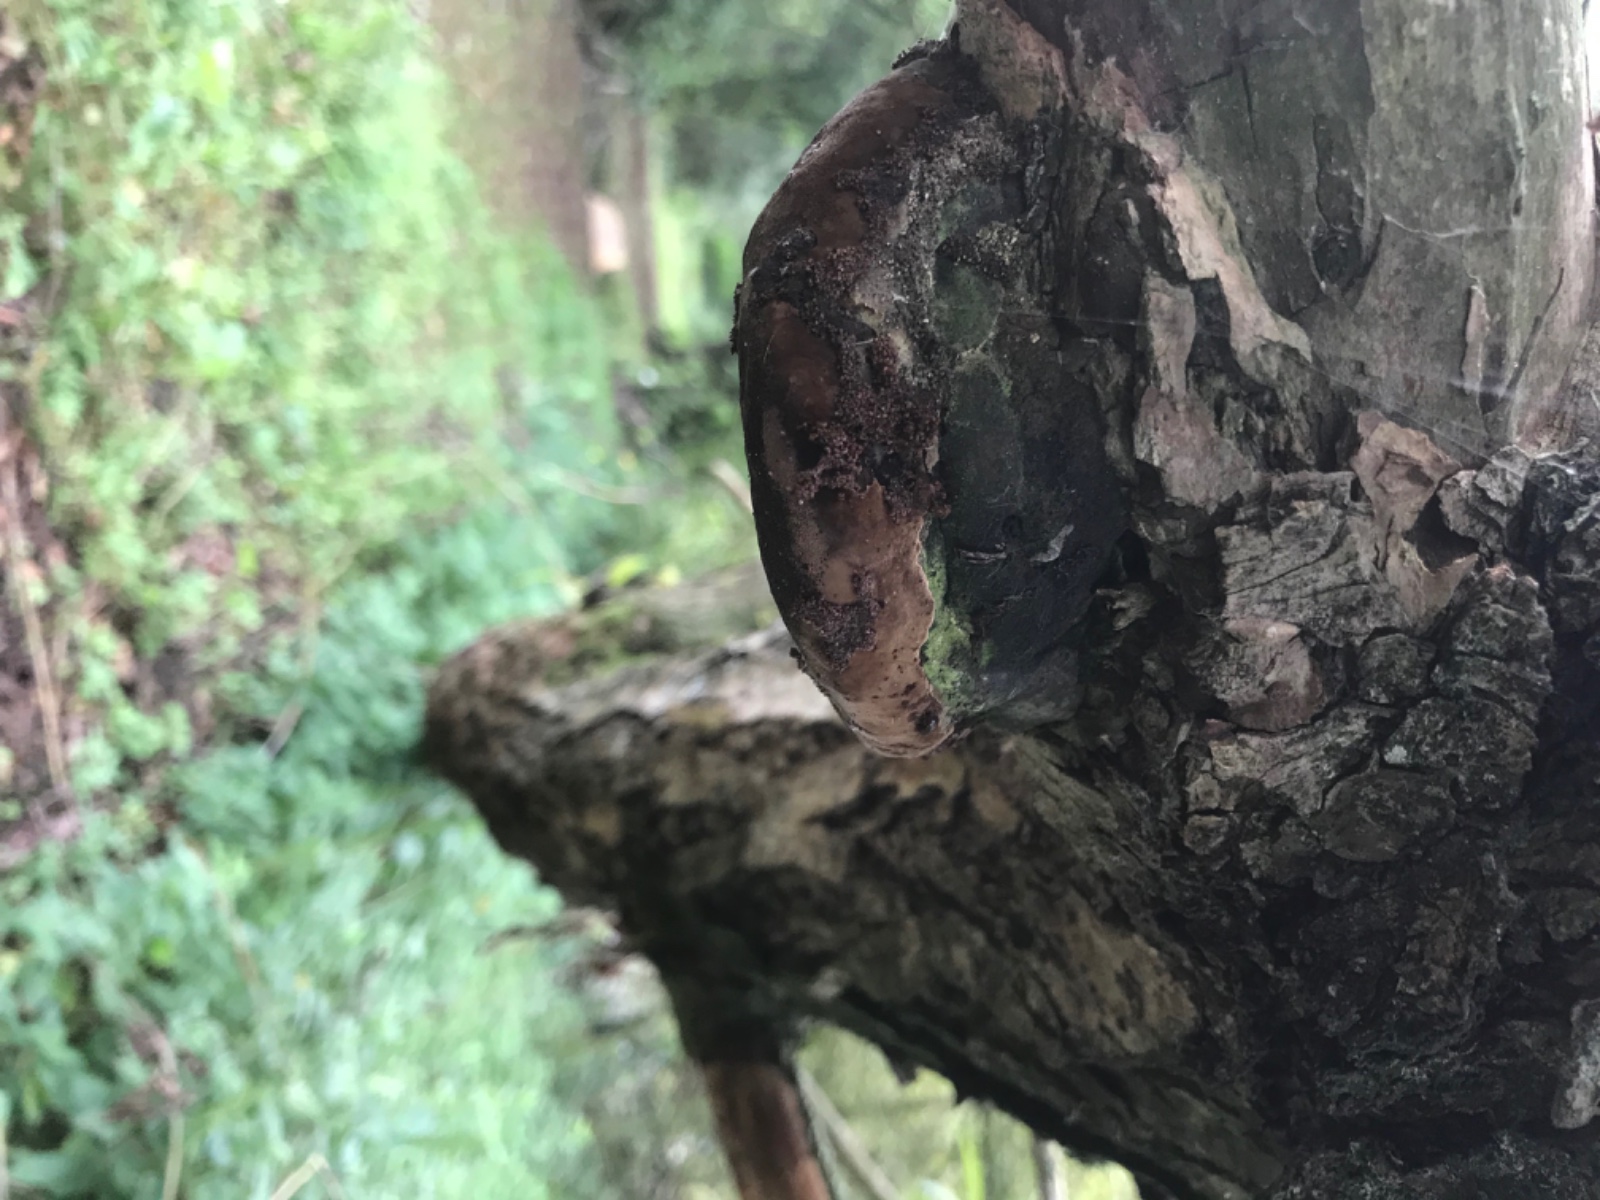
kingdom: Fungi
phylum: Basidiomycota
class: Agaricomycetes
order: Hymenochaetales
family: Hymenochaetaceae
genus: Phellinus
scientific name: Phellinus igniarius
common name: almindelig ildporesvamp
